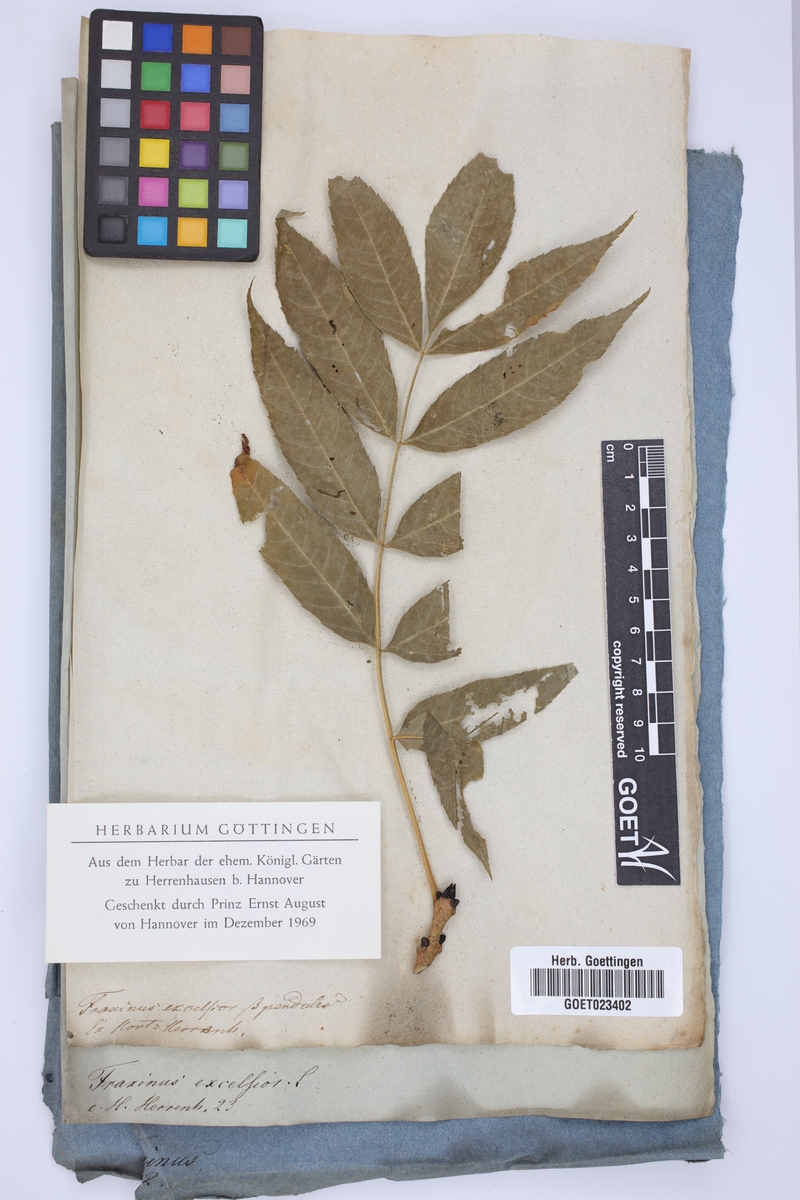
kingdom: Plantae
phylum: Tracheophyta
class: Magnoliopsida
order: Lamiales
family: Oleaceae
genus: Fraxinus
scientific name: Fraxinus excelsior
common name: European ash
